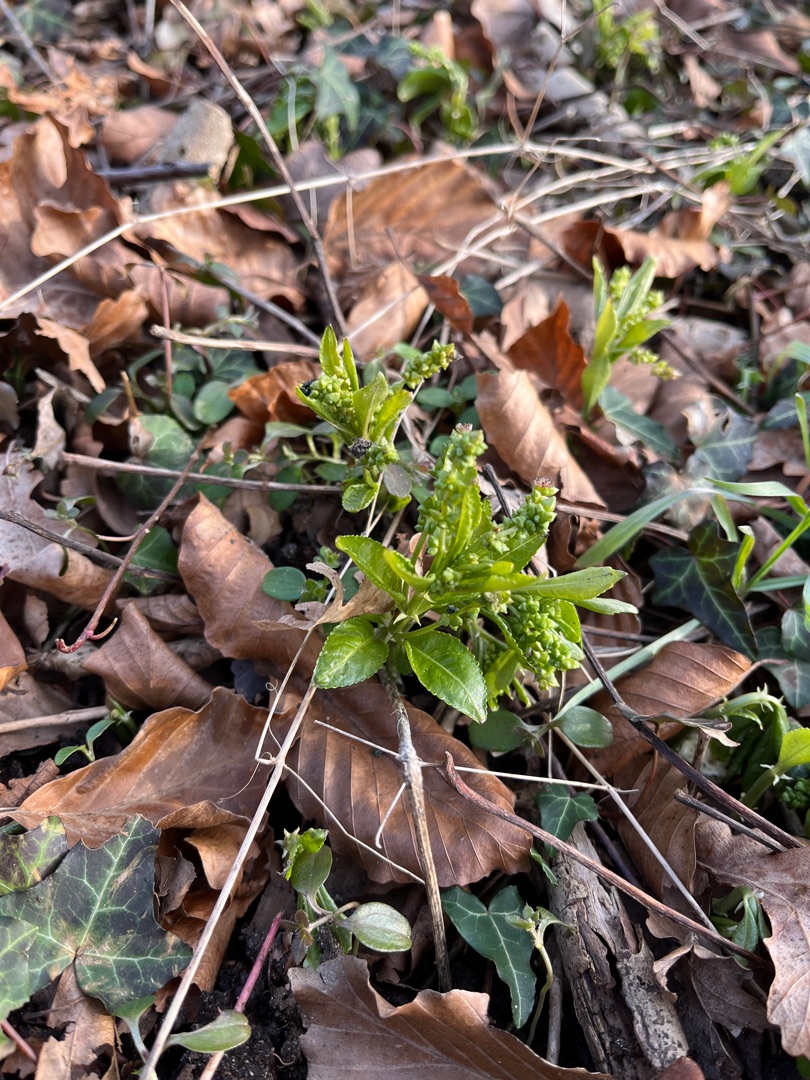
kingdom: Plantae
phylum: Tracheophyta
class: Magnoliopsida
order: Malpighiales
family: Euphorbiaceae
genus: Mercurialis
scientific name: Mercurialis perennis
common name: Almindelig bingelurt
